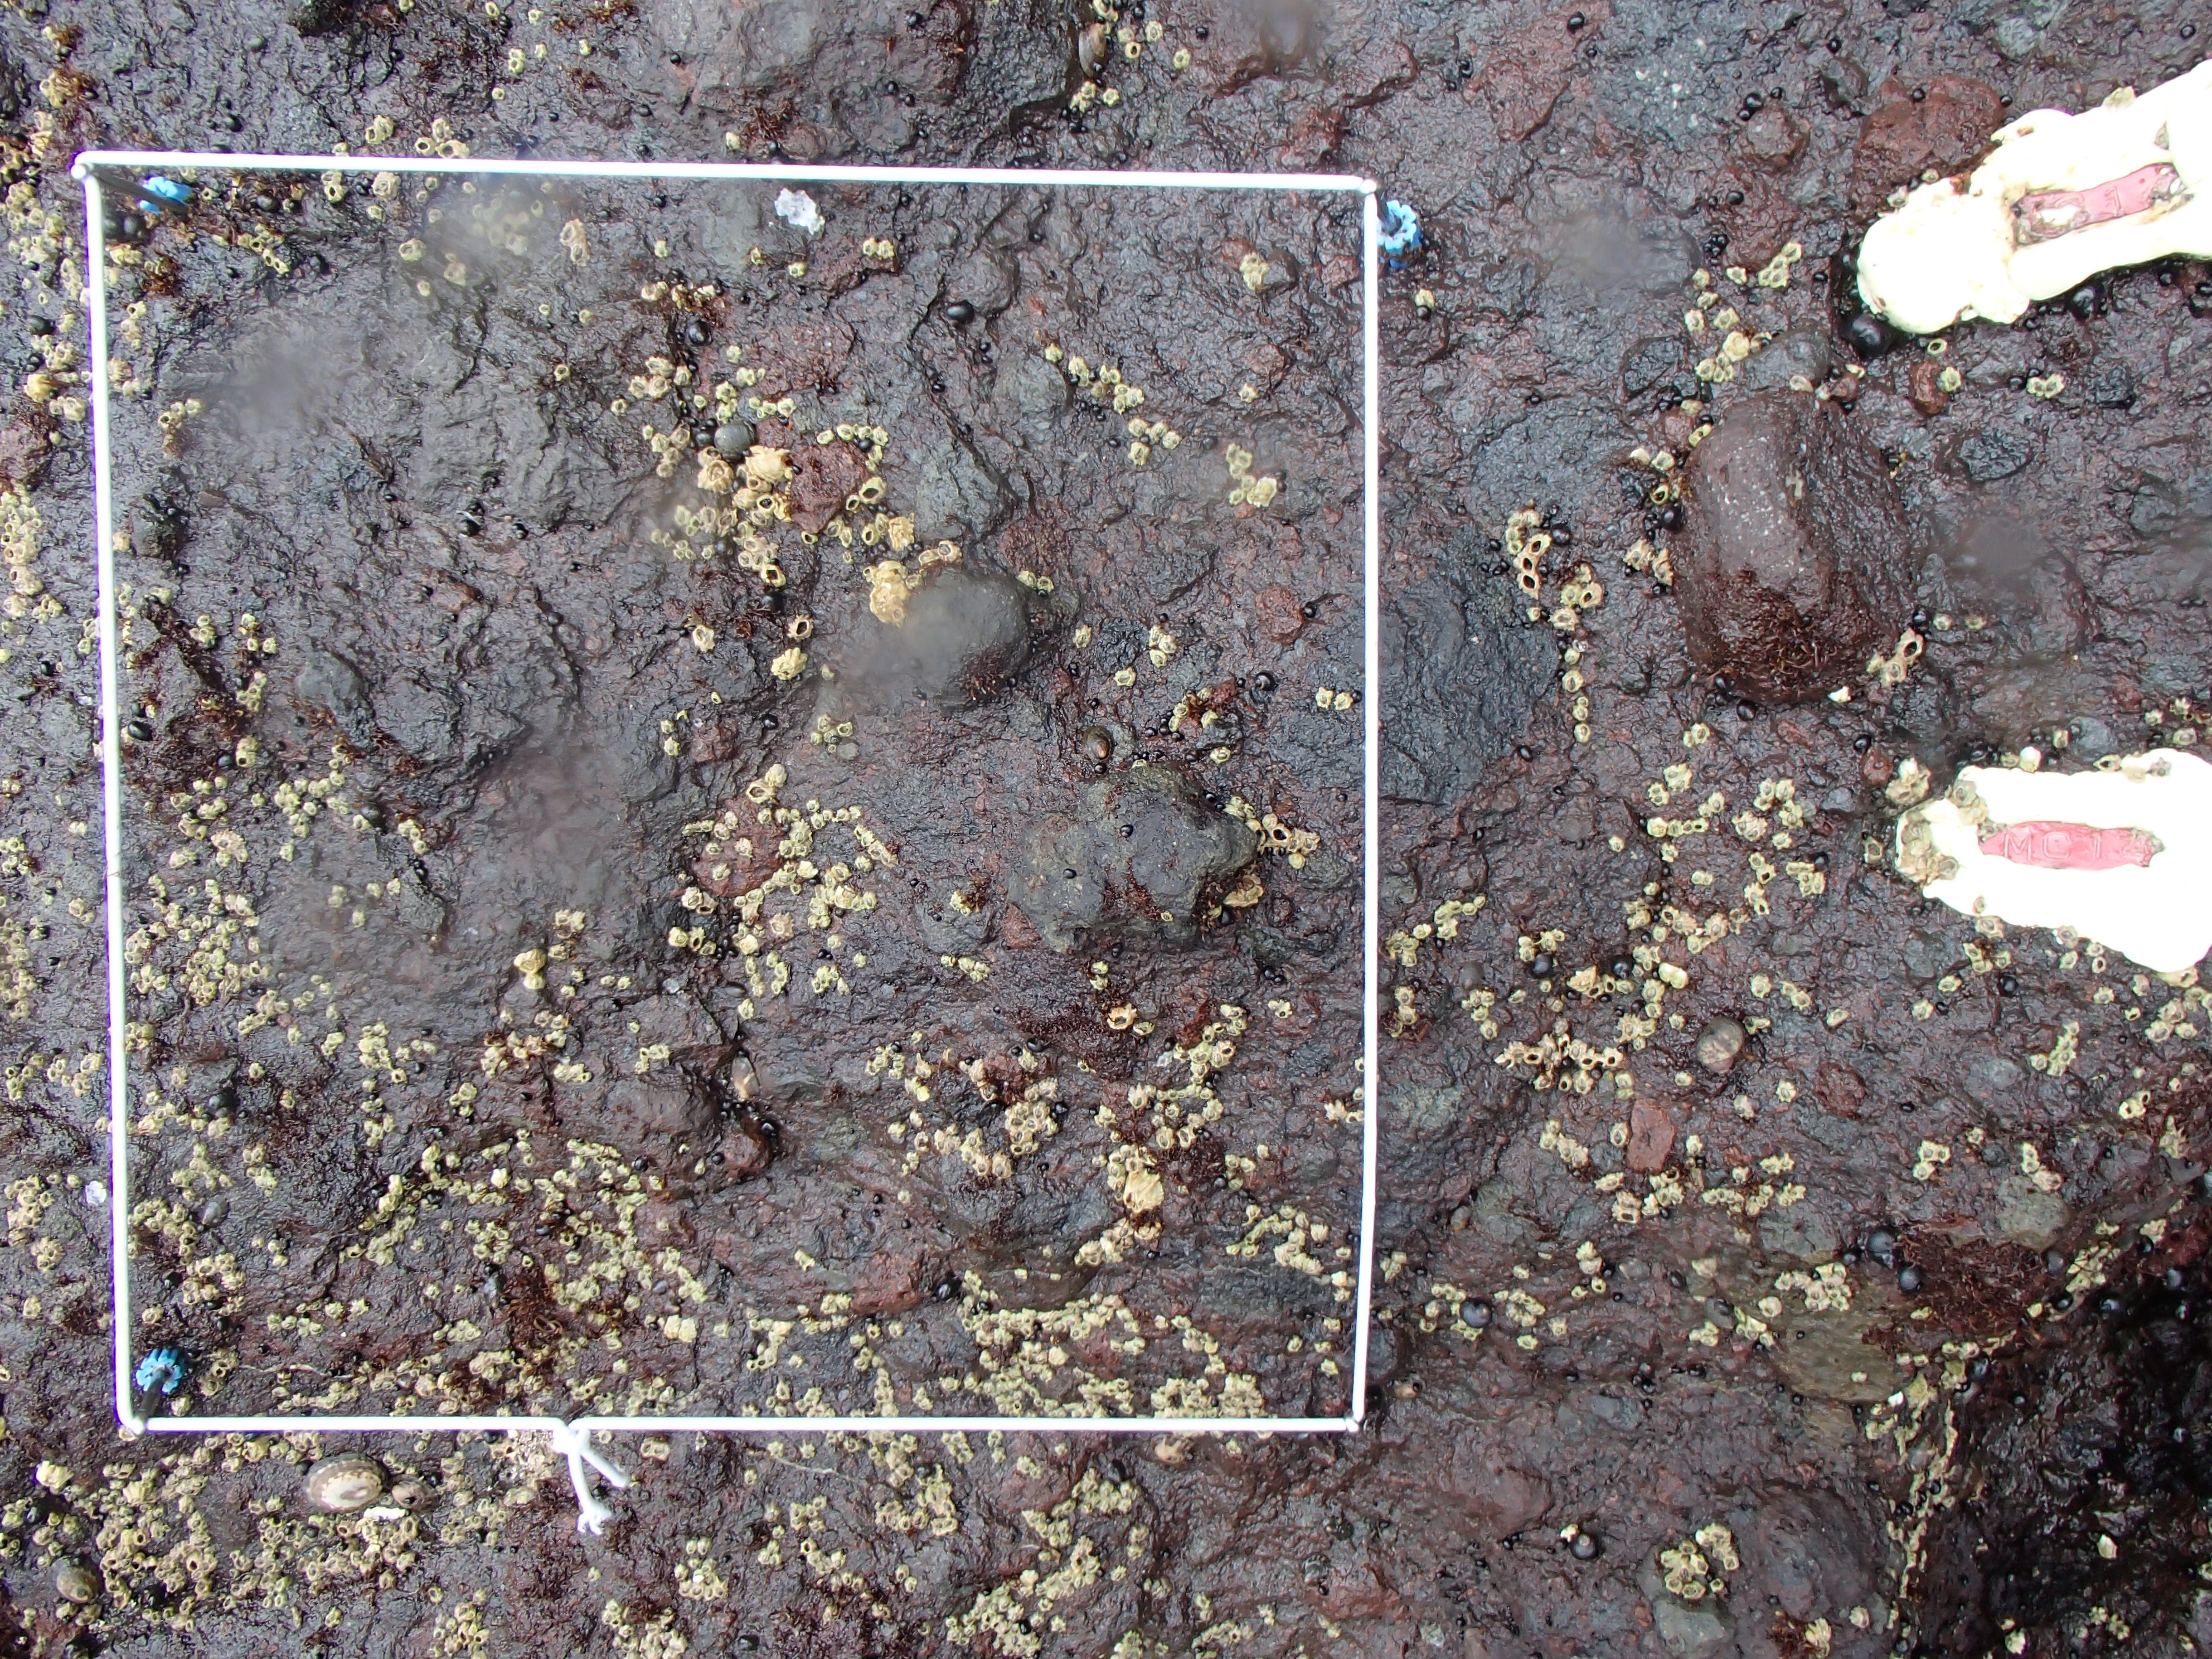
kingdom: Animalia
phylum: Arthropoda
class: Maxillopoda
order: Sessilia
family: Chthamalidae
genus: Chthamalus
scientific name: Chthamalus dalli
